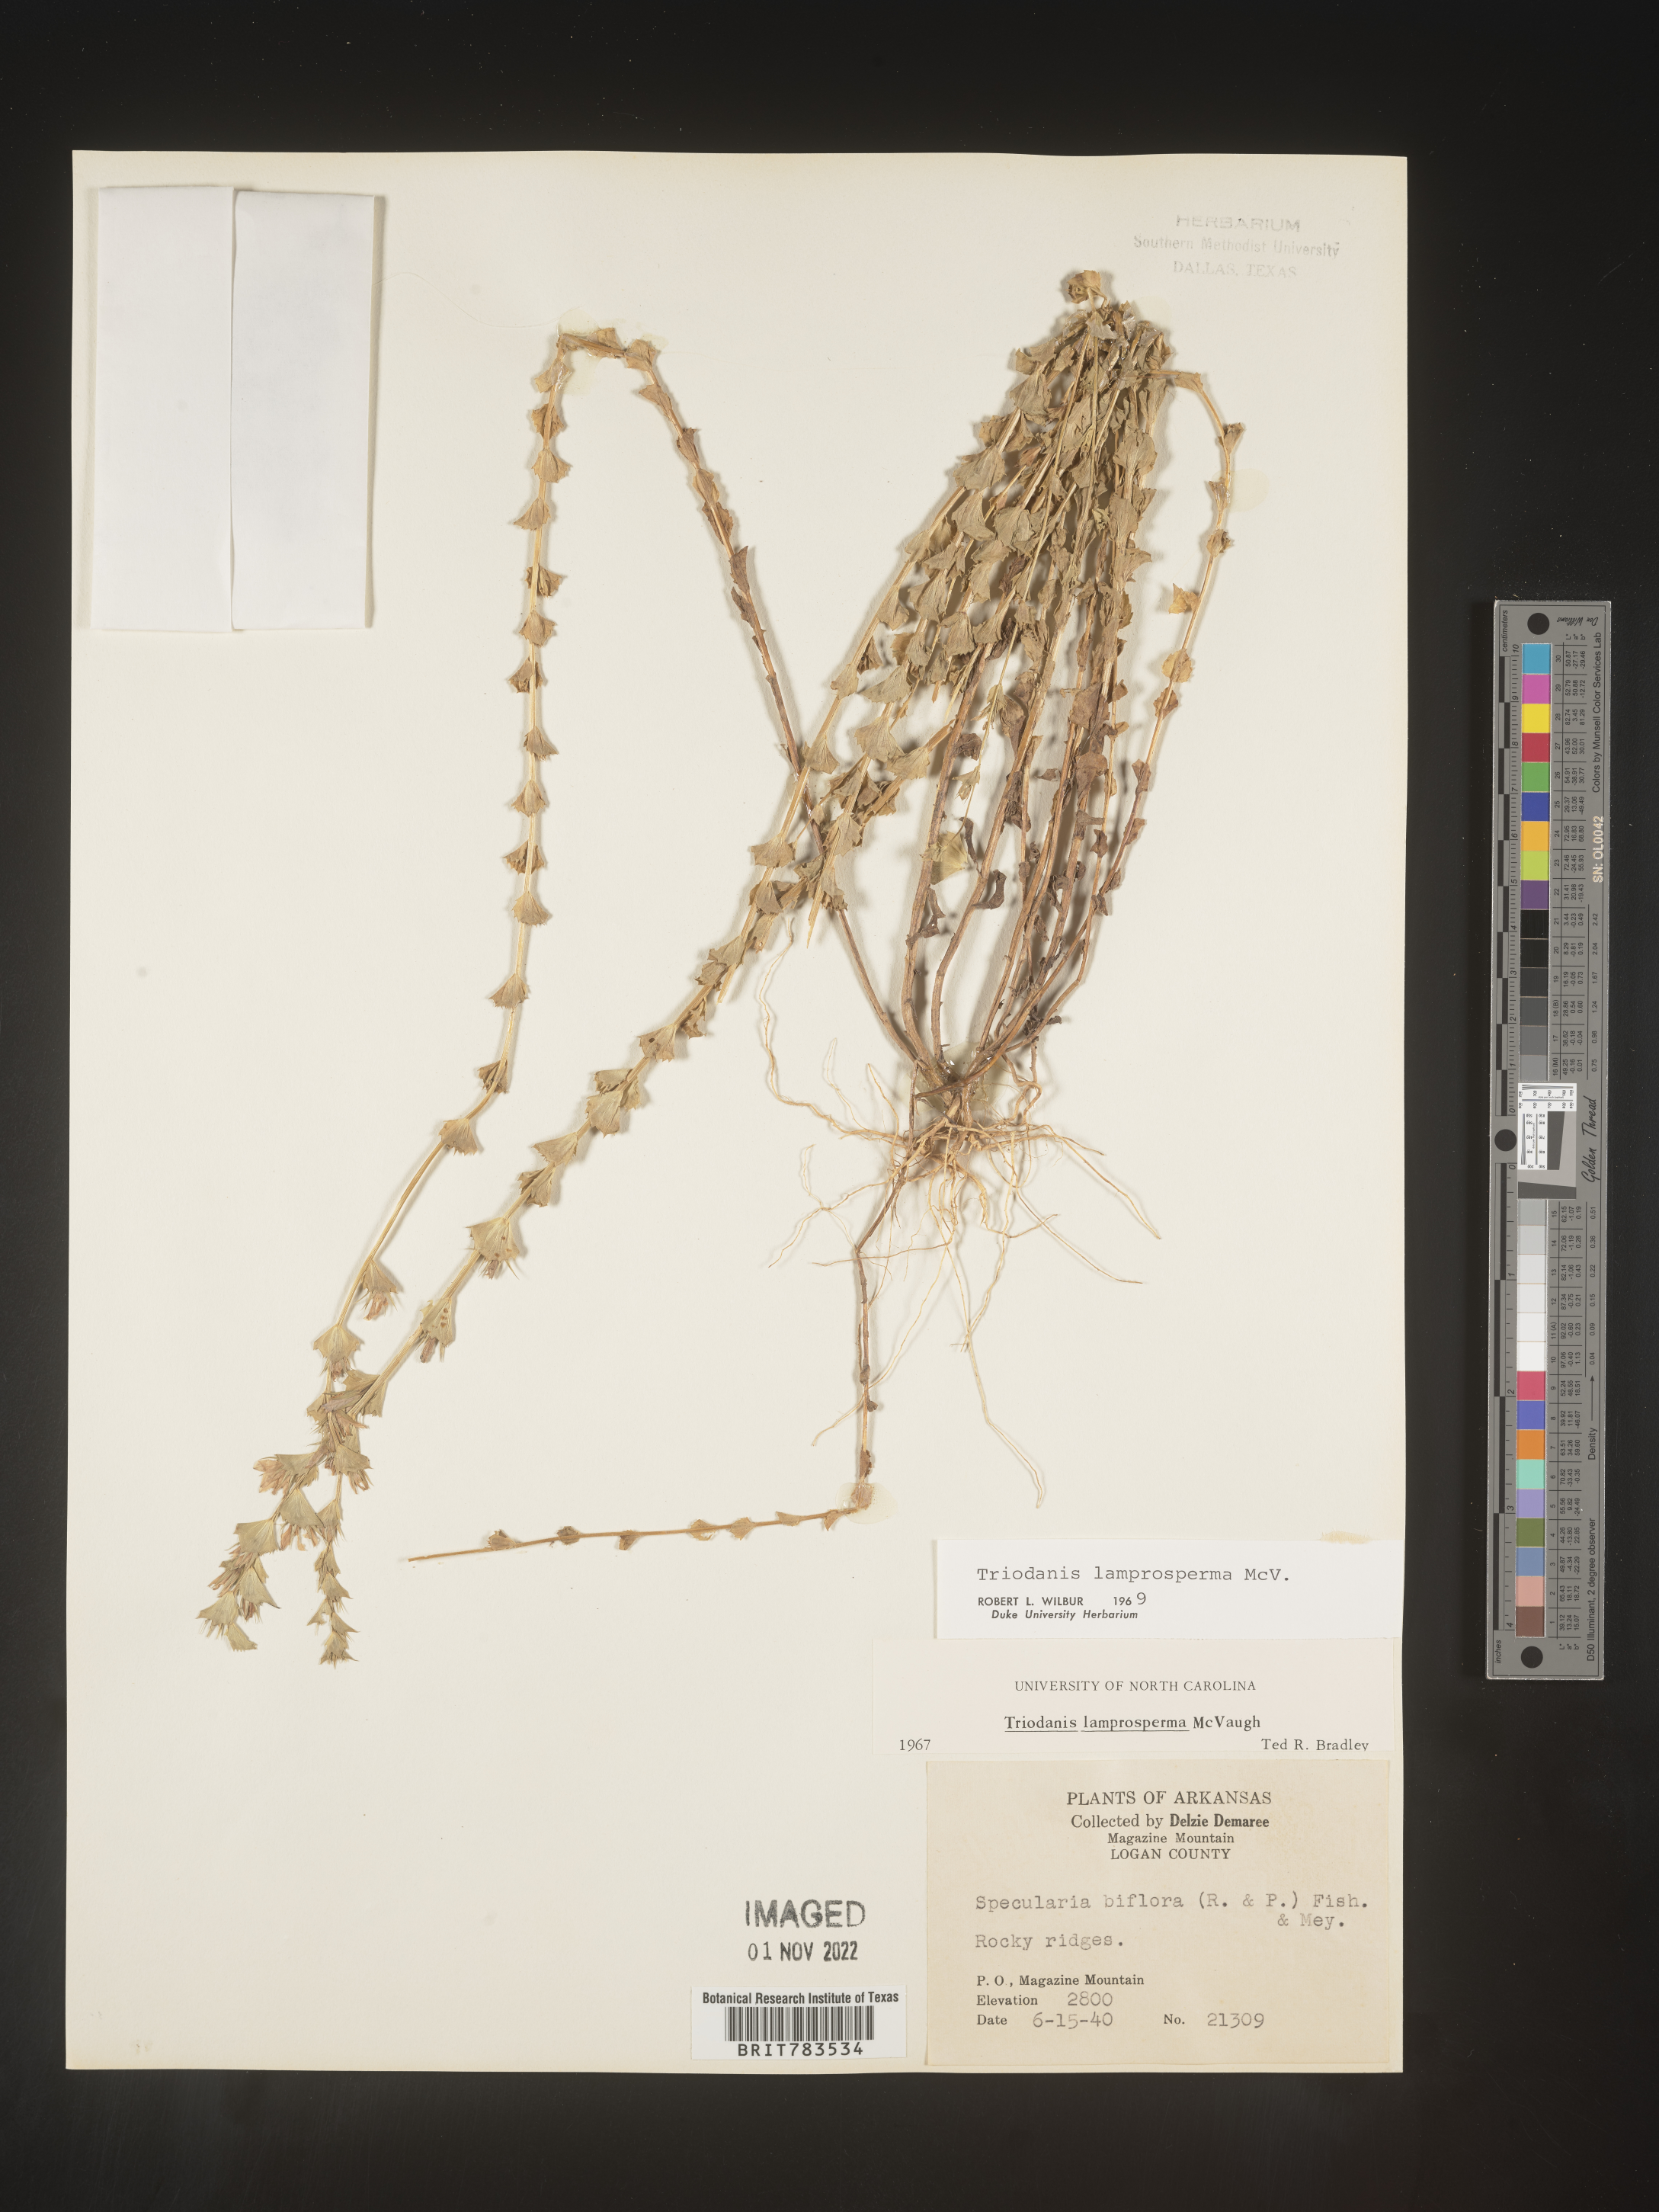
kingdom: Plantae
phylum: Tracheophyta
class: Magnoliopsida
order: Asterales
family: Campanulaceae
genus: Triodanis
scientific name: Triodanis lamprosperma
